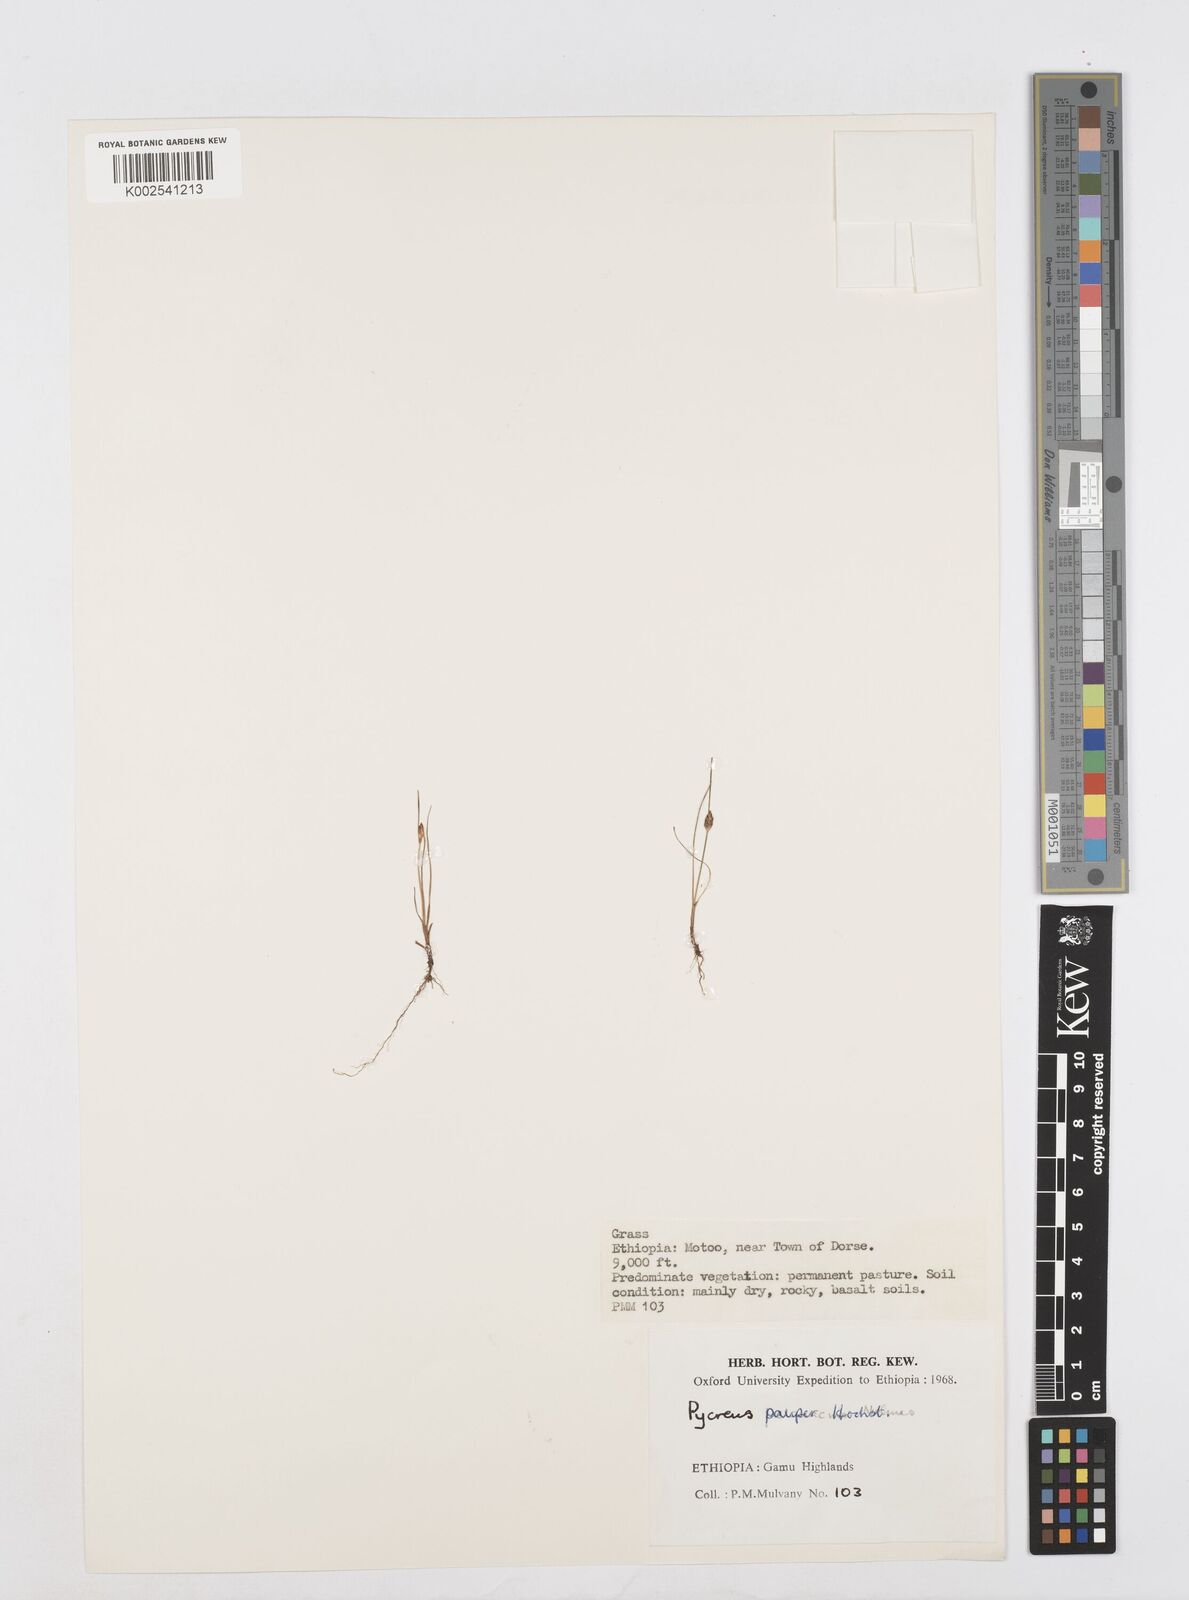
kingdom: Plantae
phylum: Tracheophyta
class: Liliopsida
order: Poales
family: Cyperaceae
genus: Cyperus
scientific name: Cyperus pauper
